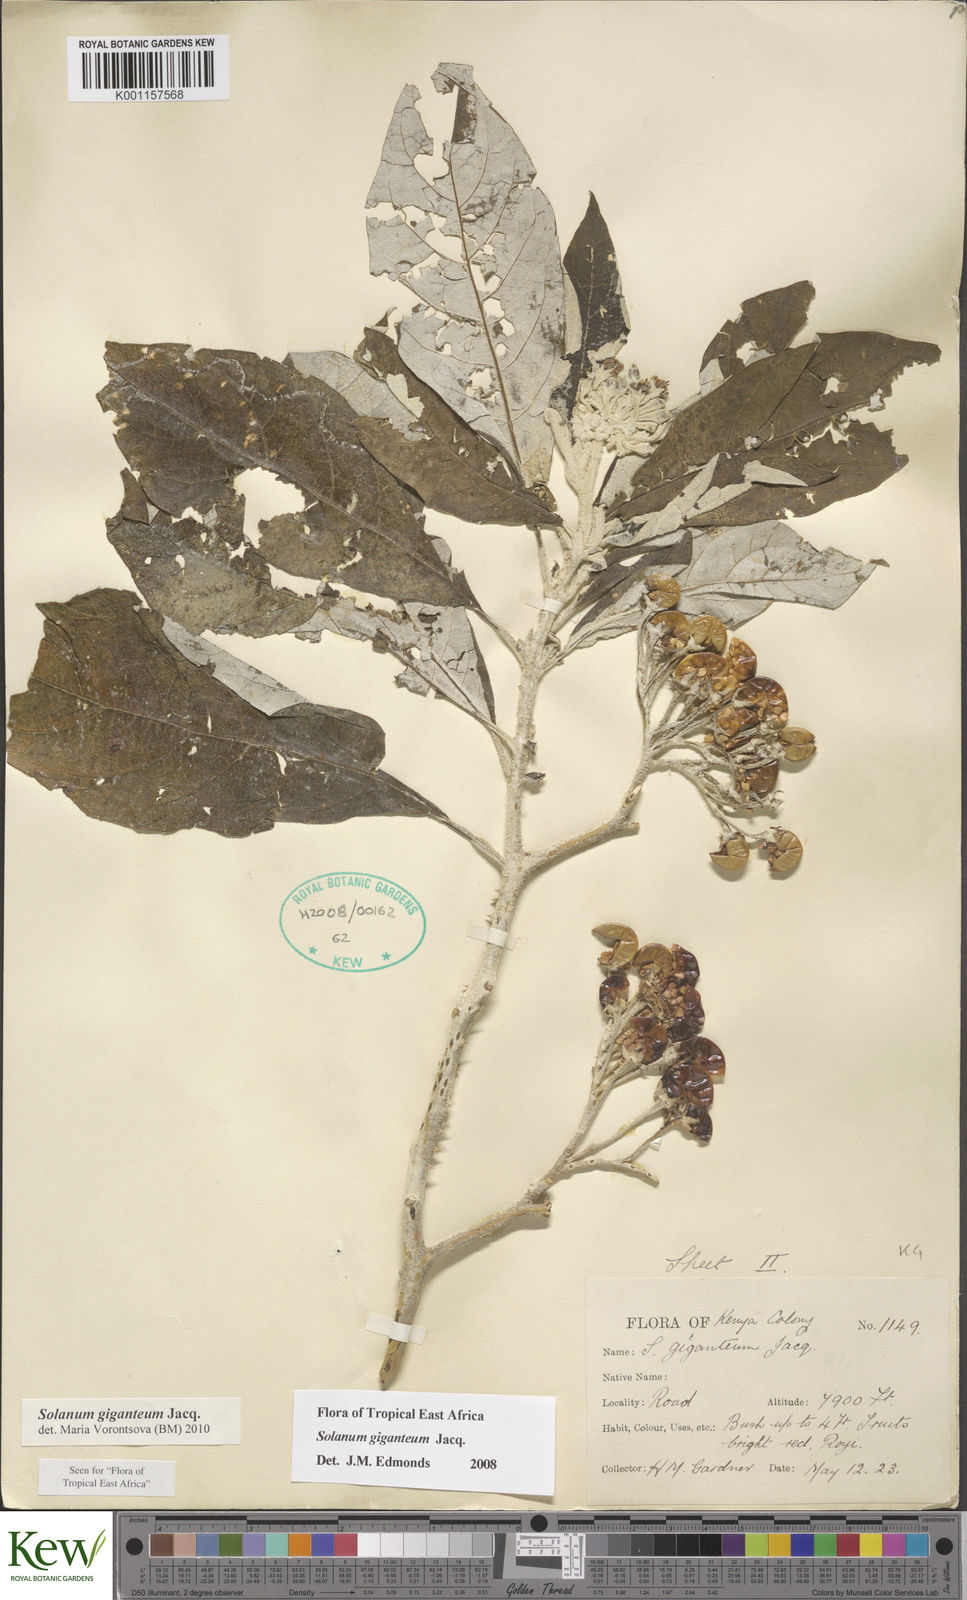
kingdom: Plantae
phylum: Tracheophyta
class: Magnoliopsida
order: Solanales
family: Solanaceae
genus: Solanum
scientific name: Solanum giganteum
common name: Healing-leaf-tree
